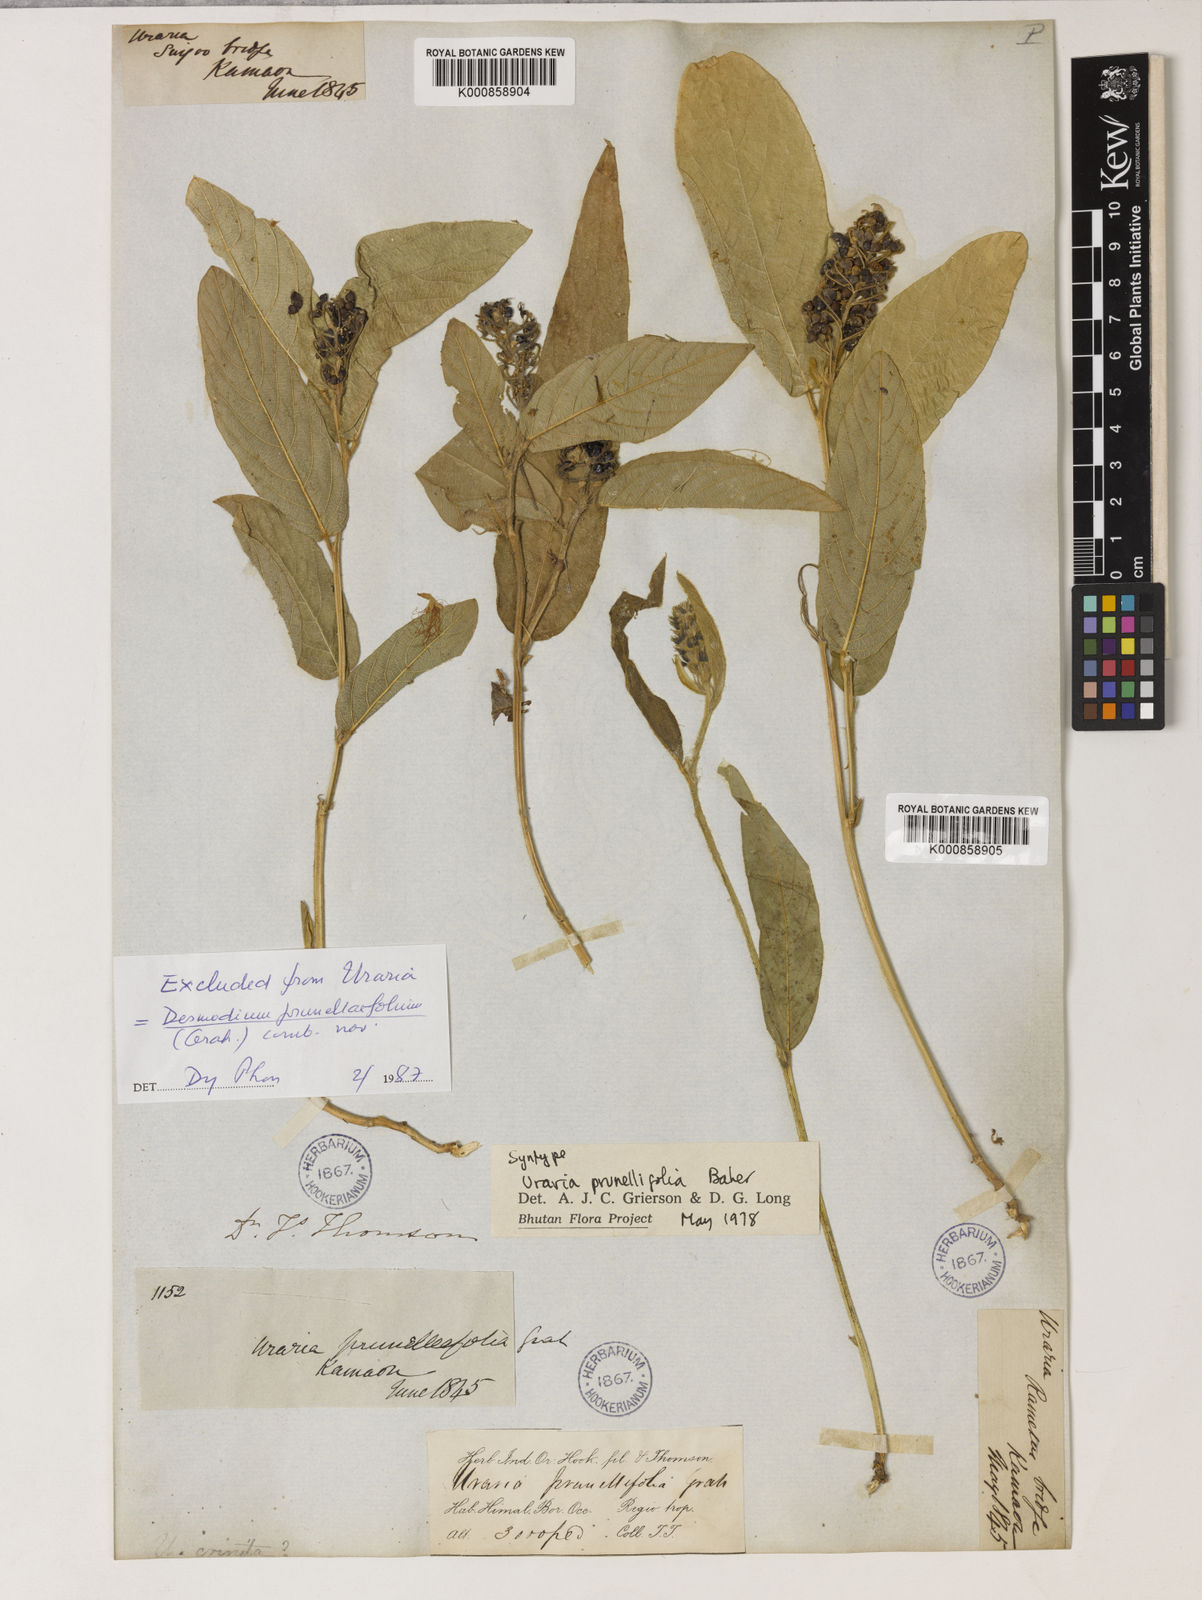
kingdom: Plantae
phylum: Tracheophyta
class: Magnoliopsida
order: Fabales
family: Fabaceae
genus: Uraria
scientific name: Uraria
